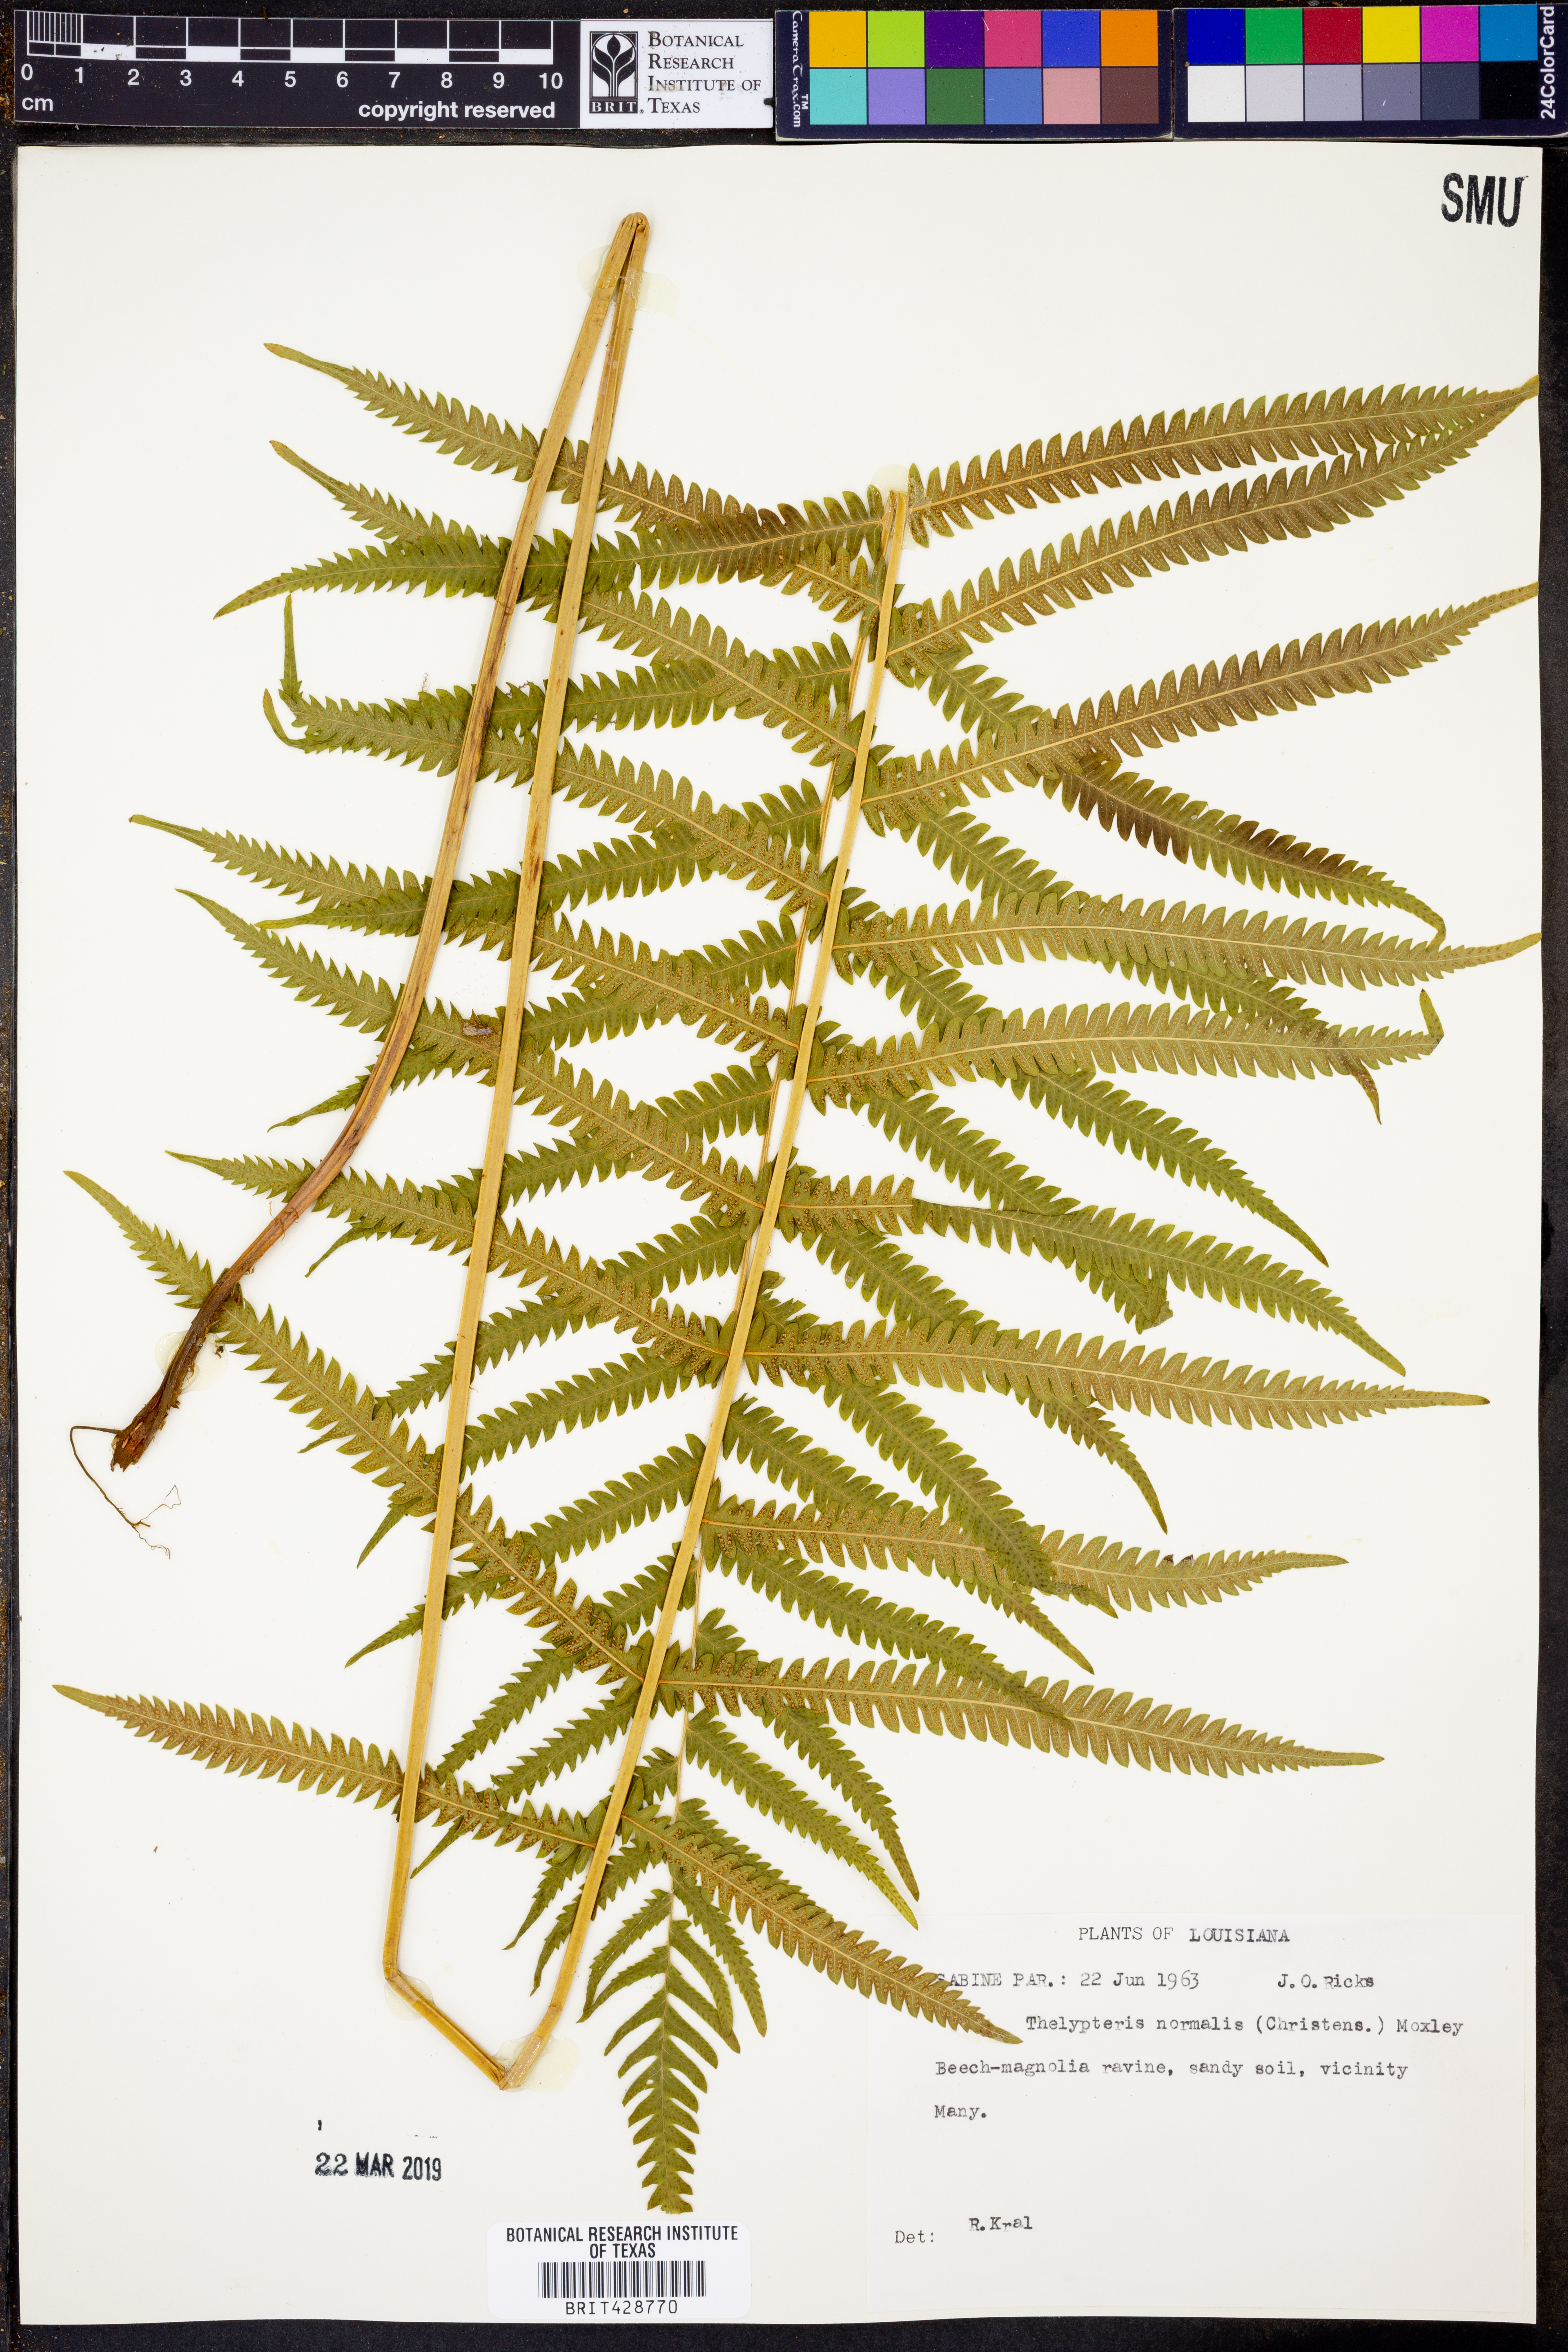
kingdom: Plantae
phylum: Tracheophyta
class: Polypodiopsida
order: Polypodiales
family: Thelypteridaceae
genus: Pelazoneuron
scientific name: Pelazoneuron kunthii
